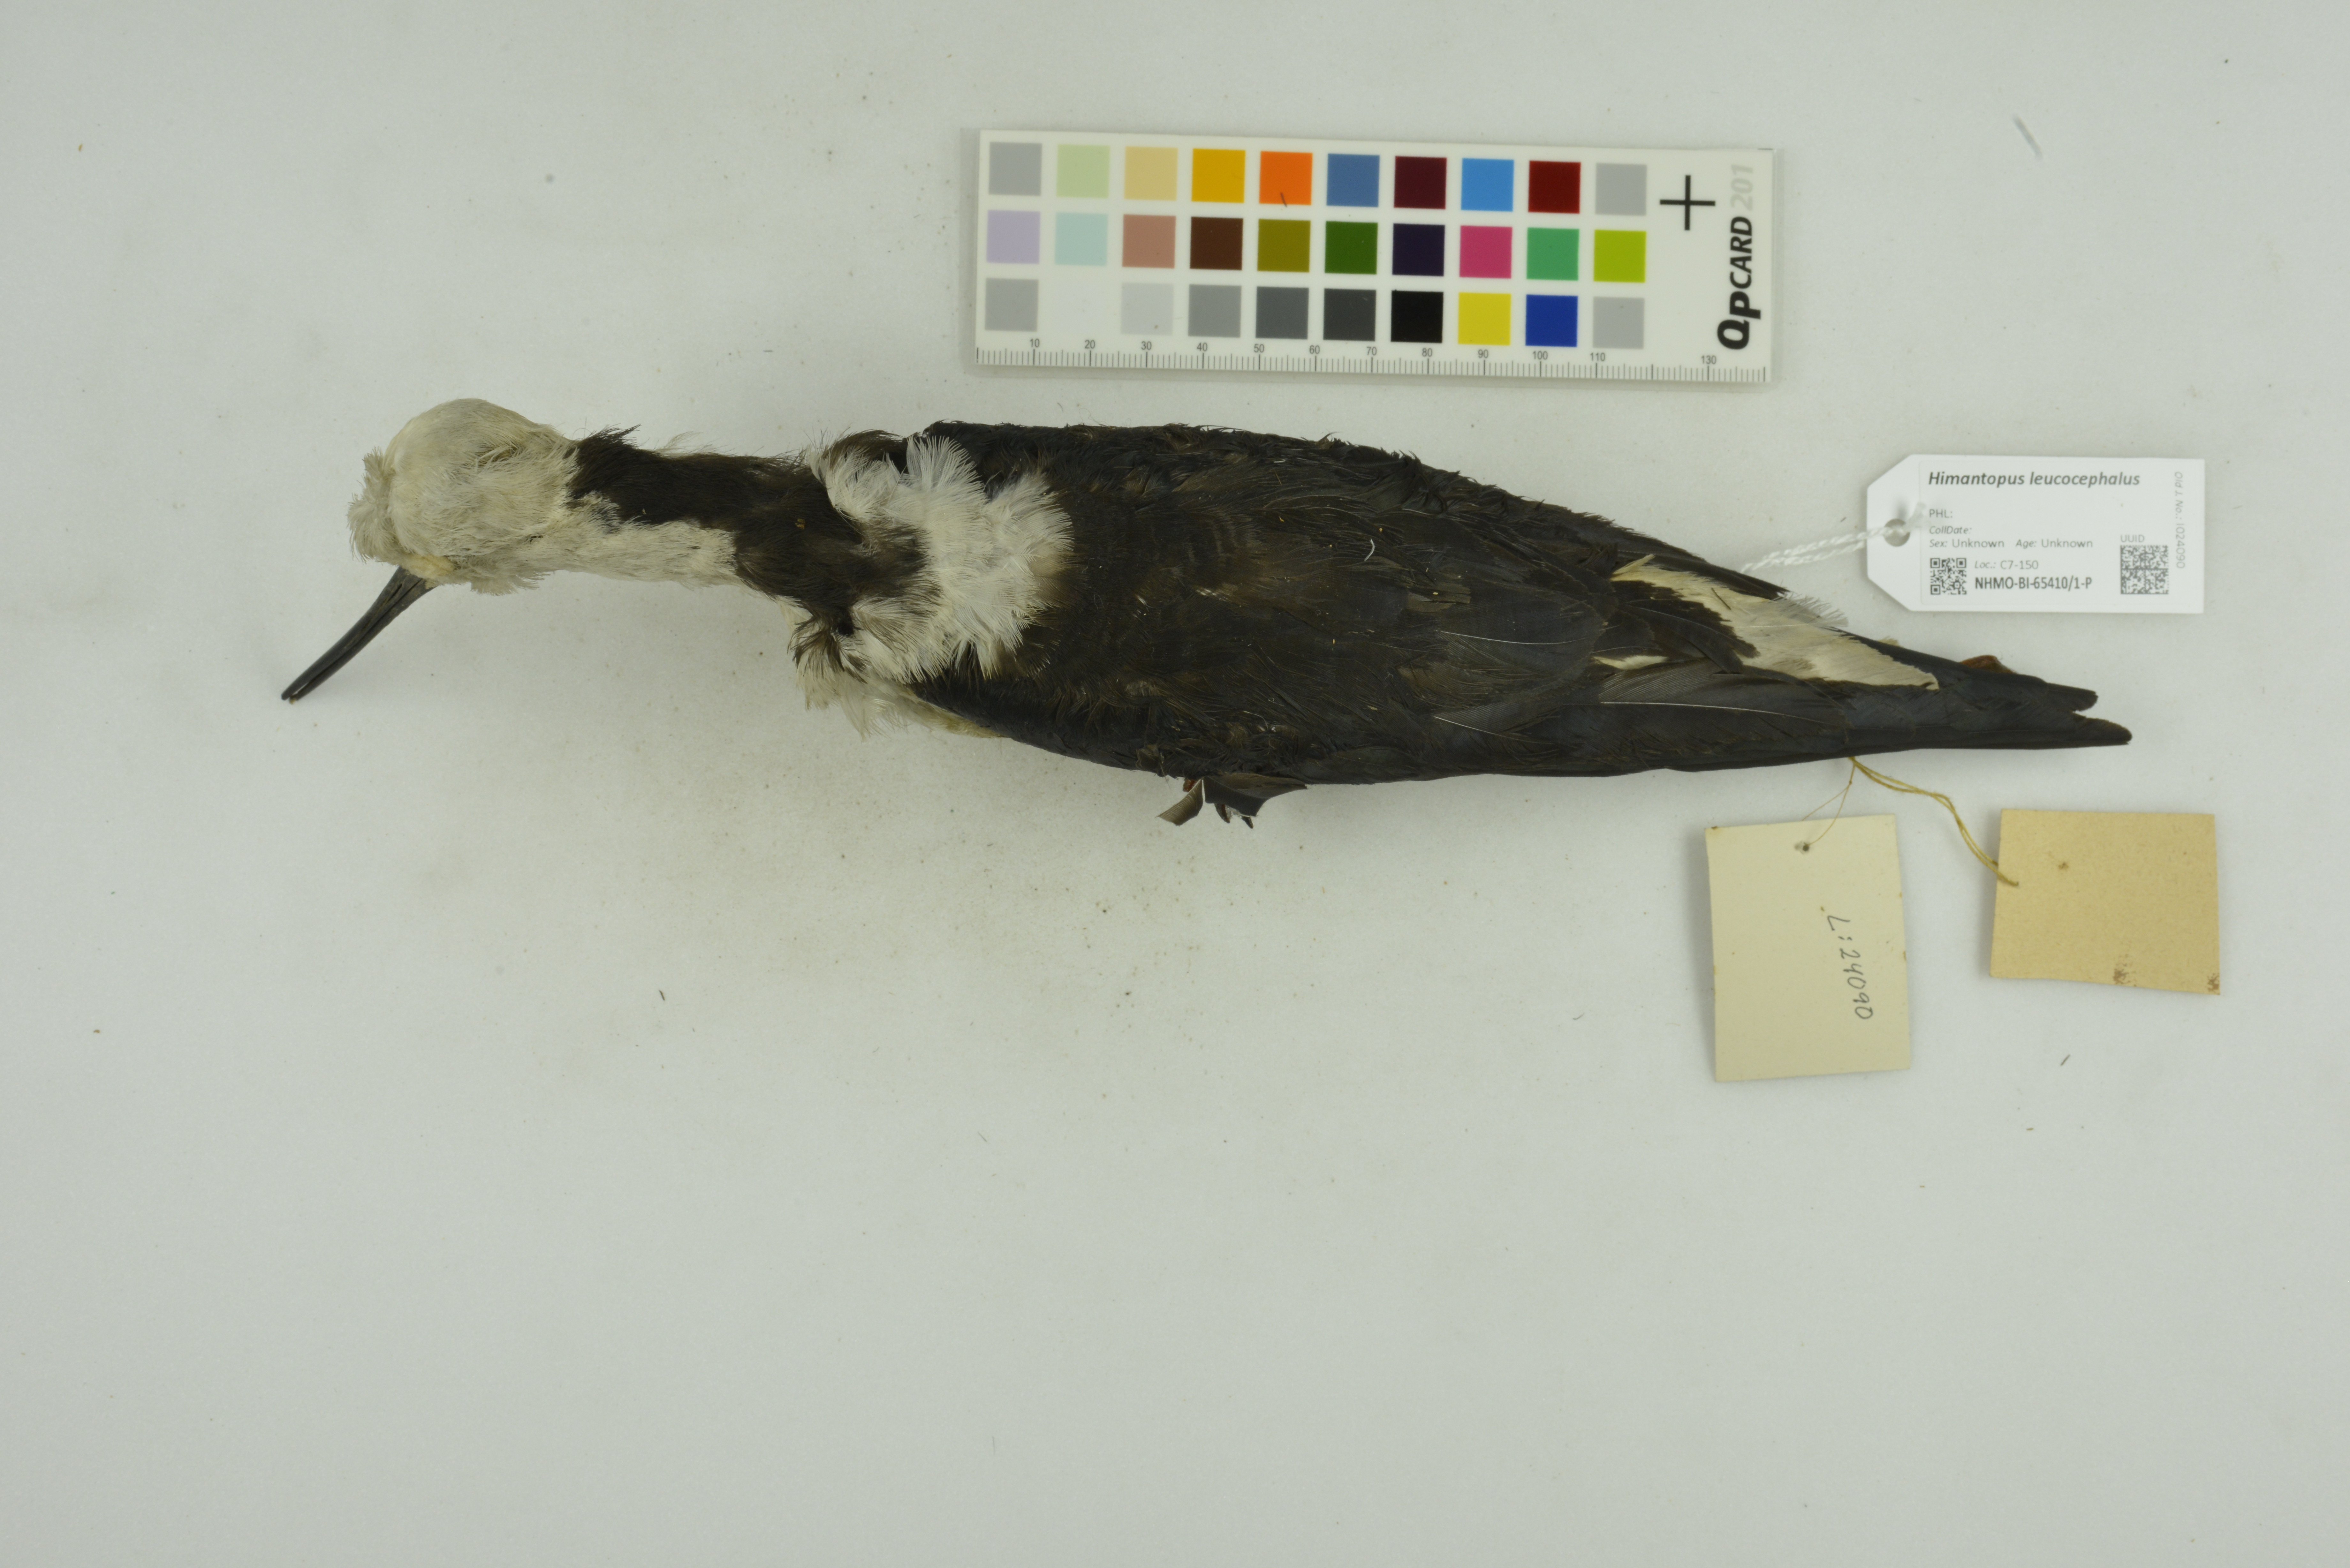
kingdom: Animalia
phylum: Chordata
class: Aves
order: Charadriiformes
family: Recurvirostridae
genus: Himantopus
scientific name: Himantopus leucocephalus
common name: White-headed stilt
